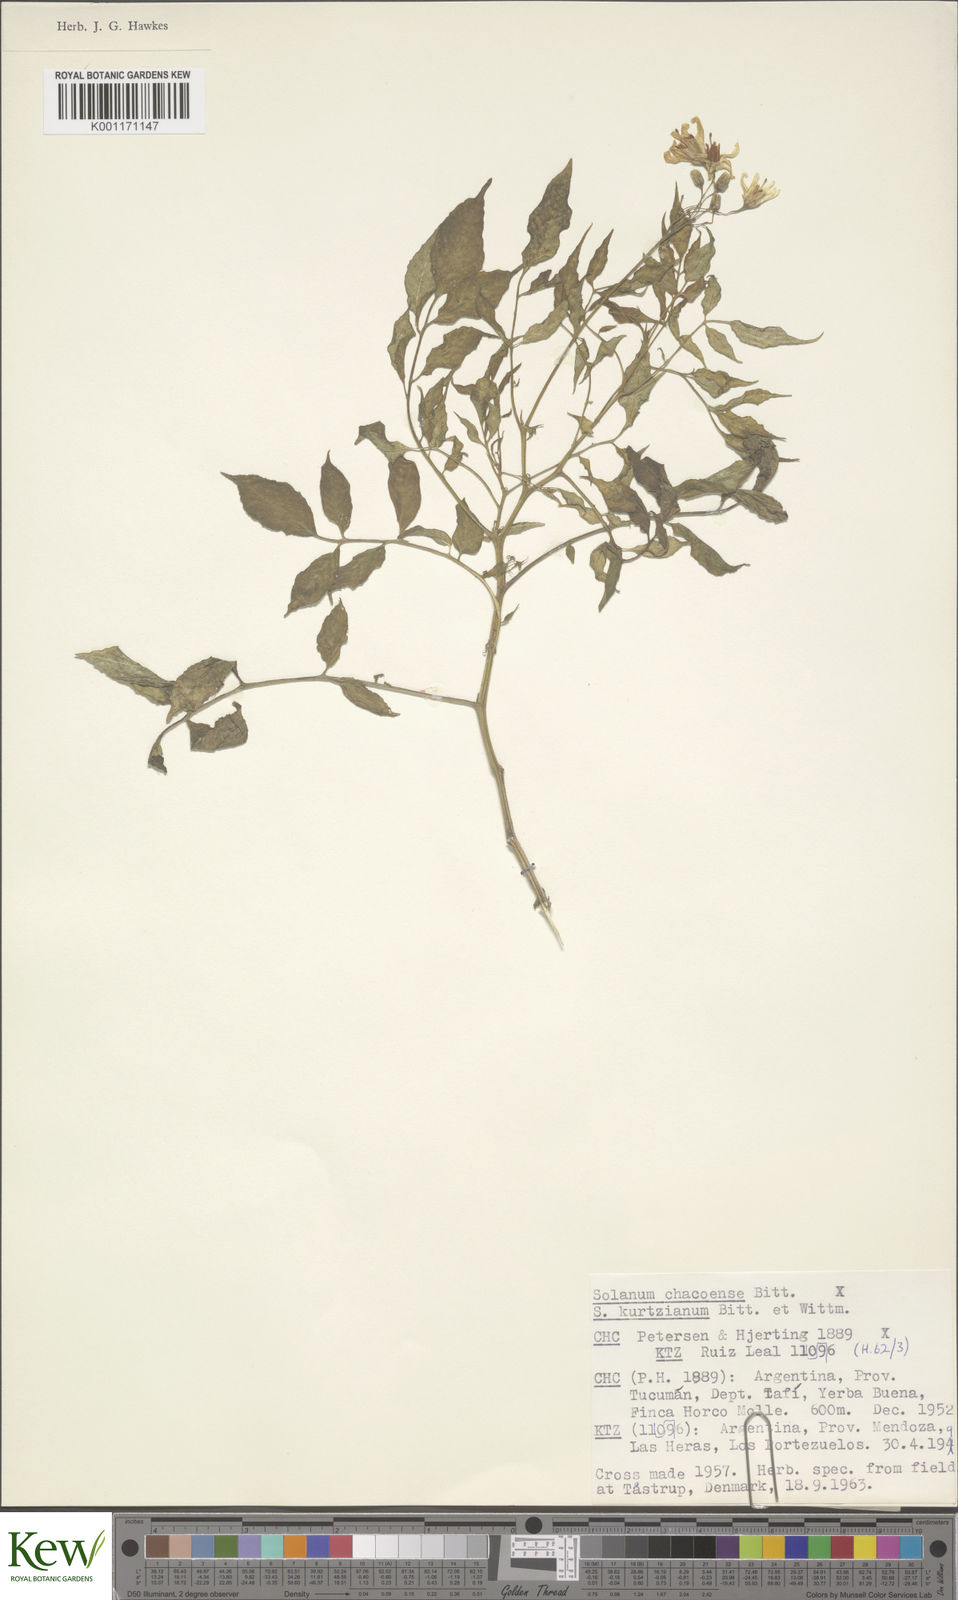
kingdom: Plantae
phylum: Tracheophyta
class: Magnoliopsida
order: Solanales
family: Solanaceae
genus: Solanum
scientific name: Solanum chacoense
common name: Chaco potato
